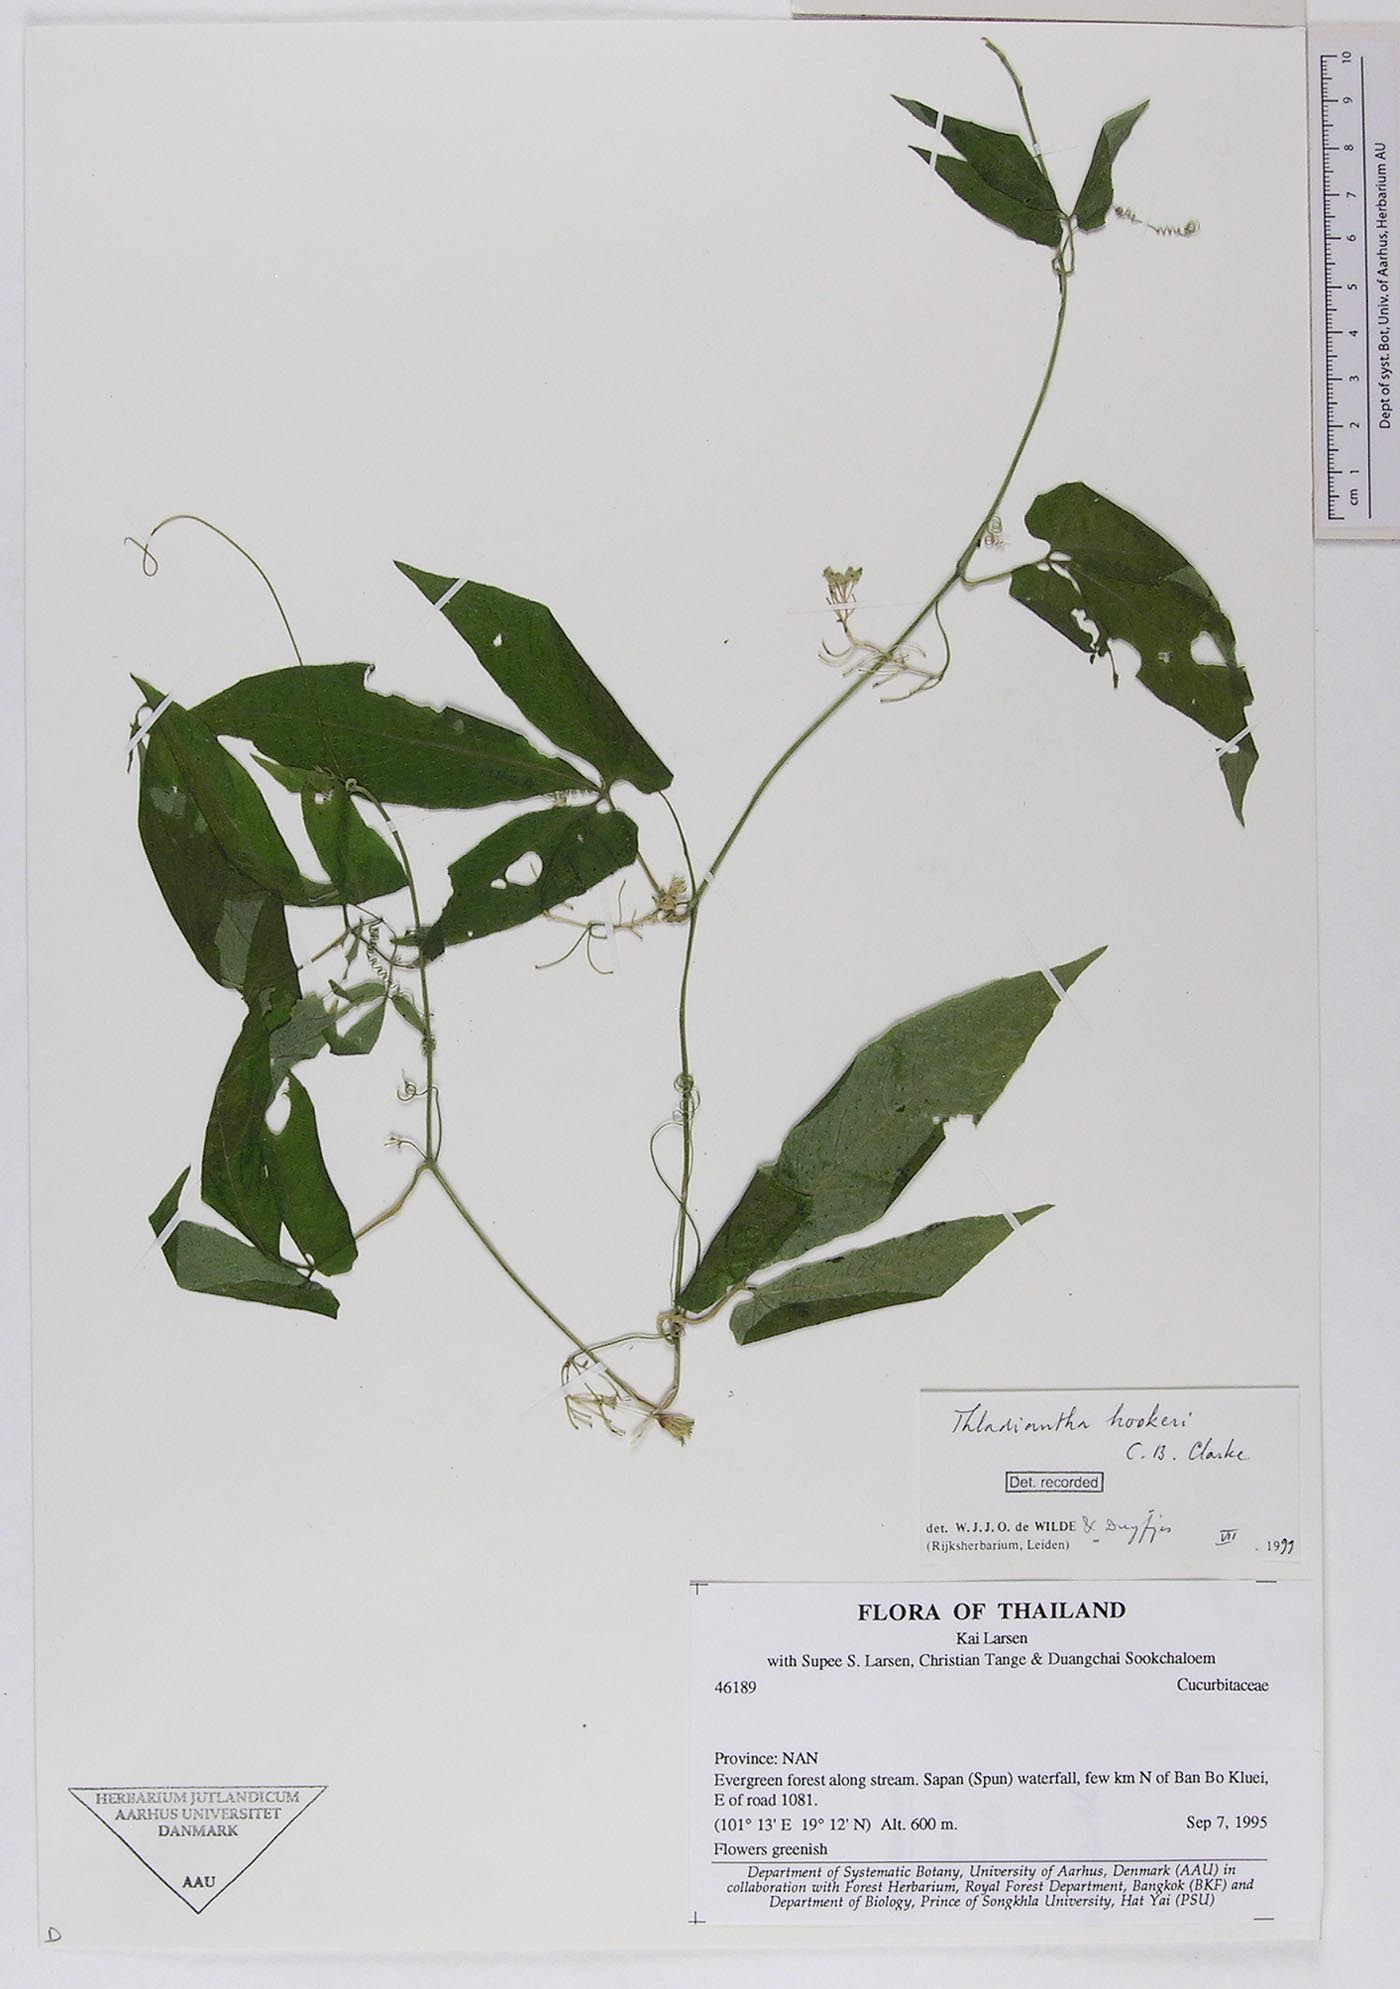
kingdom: Plantae
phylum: Tracheophyta
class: Magnoliopsida
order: Cucurbitales
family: Cucurbitaceae
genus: Thladiantha
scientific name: Thladiantha hookeri
